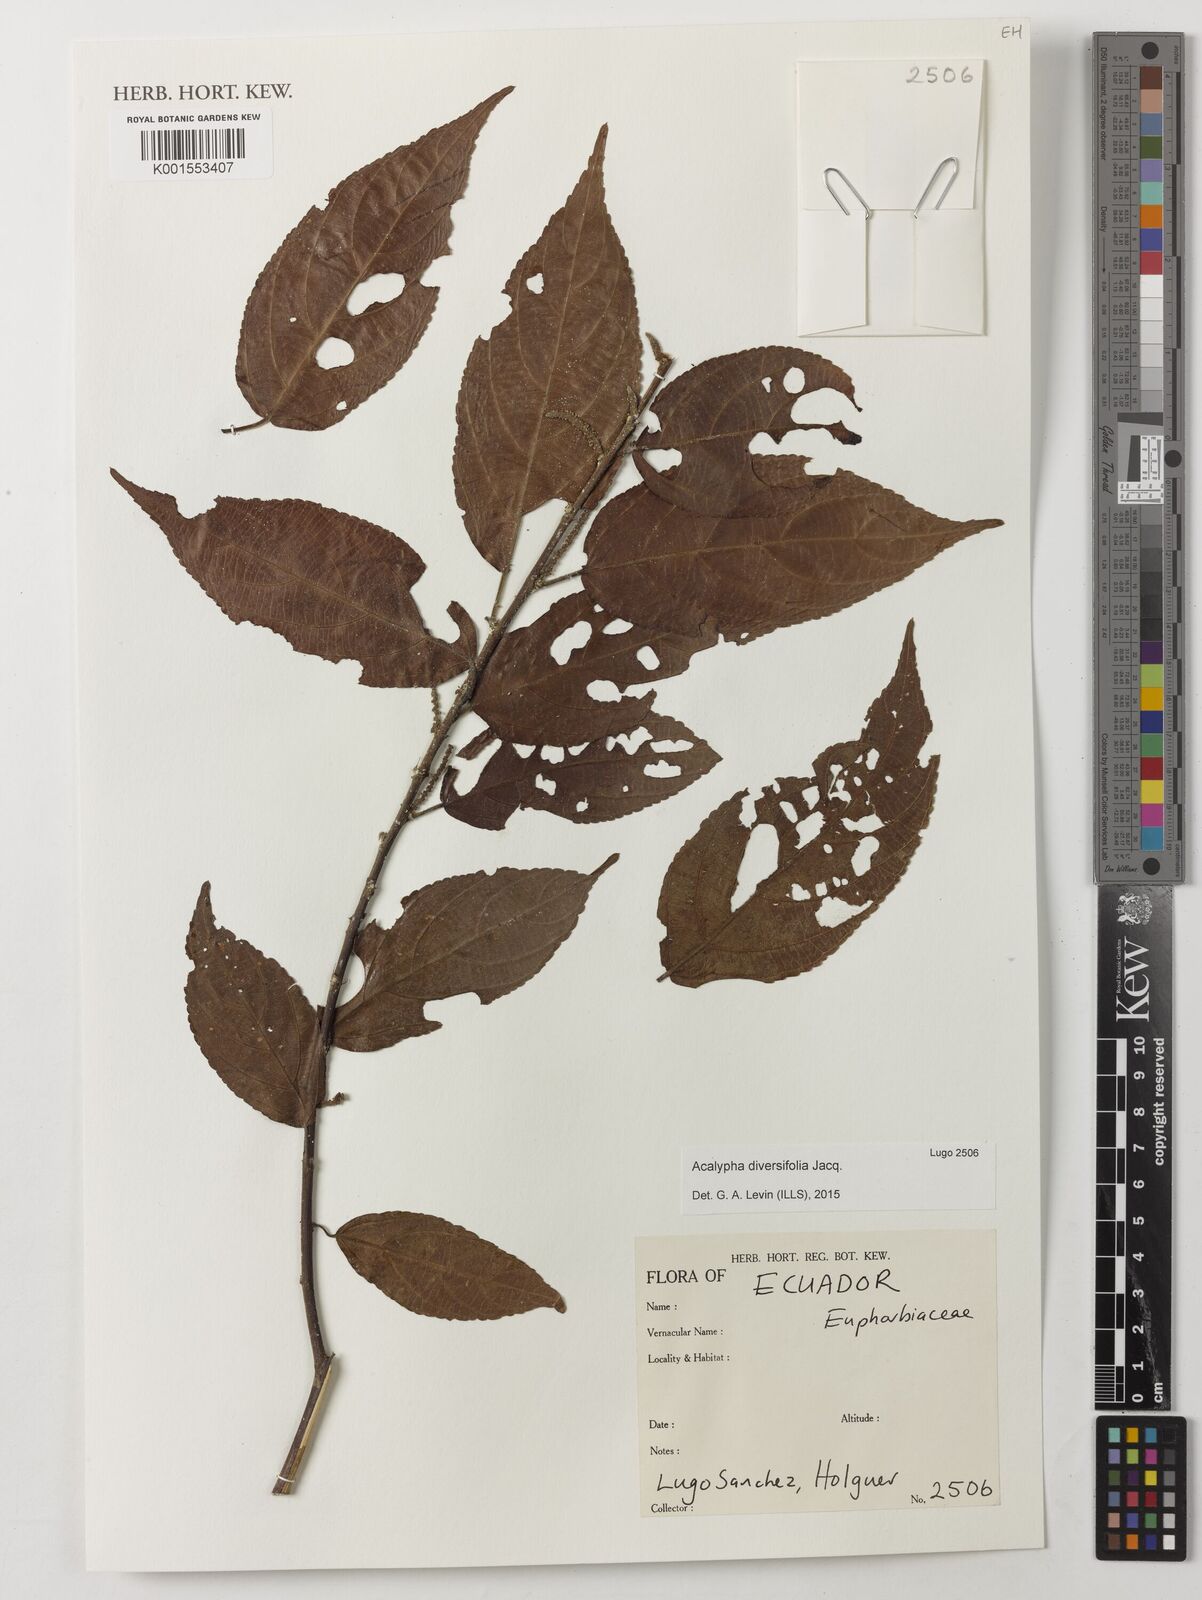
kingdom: Plantae
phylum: Tracheophyta
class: Magnoliopsida
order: Malpighiales
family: Euphorbiaceae
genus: Acalypha
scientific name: Acalypha diversifolia
